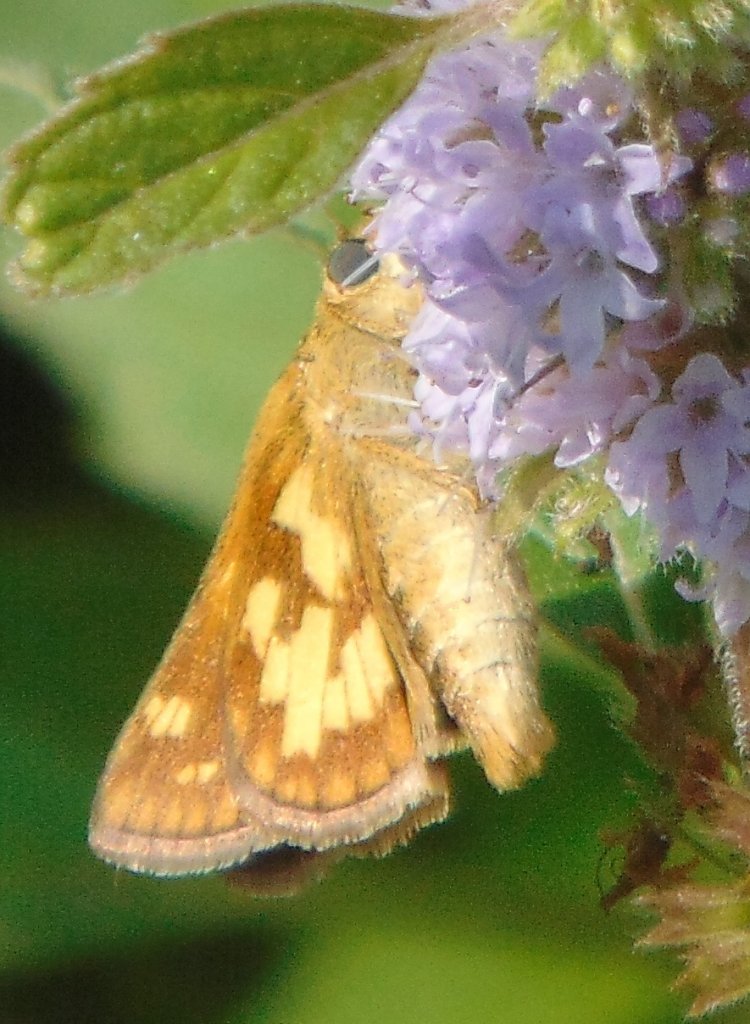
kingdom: Animalia
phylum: Arthropoda
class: Insecta
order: Lepidoptera
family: Hesperiidae
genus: Polites
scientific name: Polites coras
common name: Peck's Skipper
